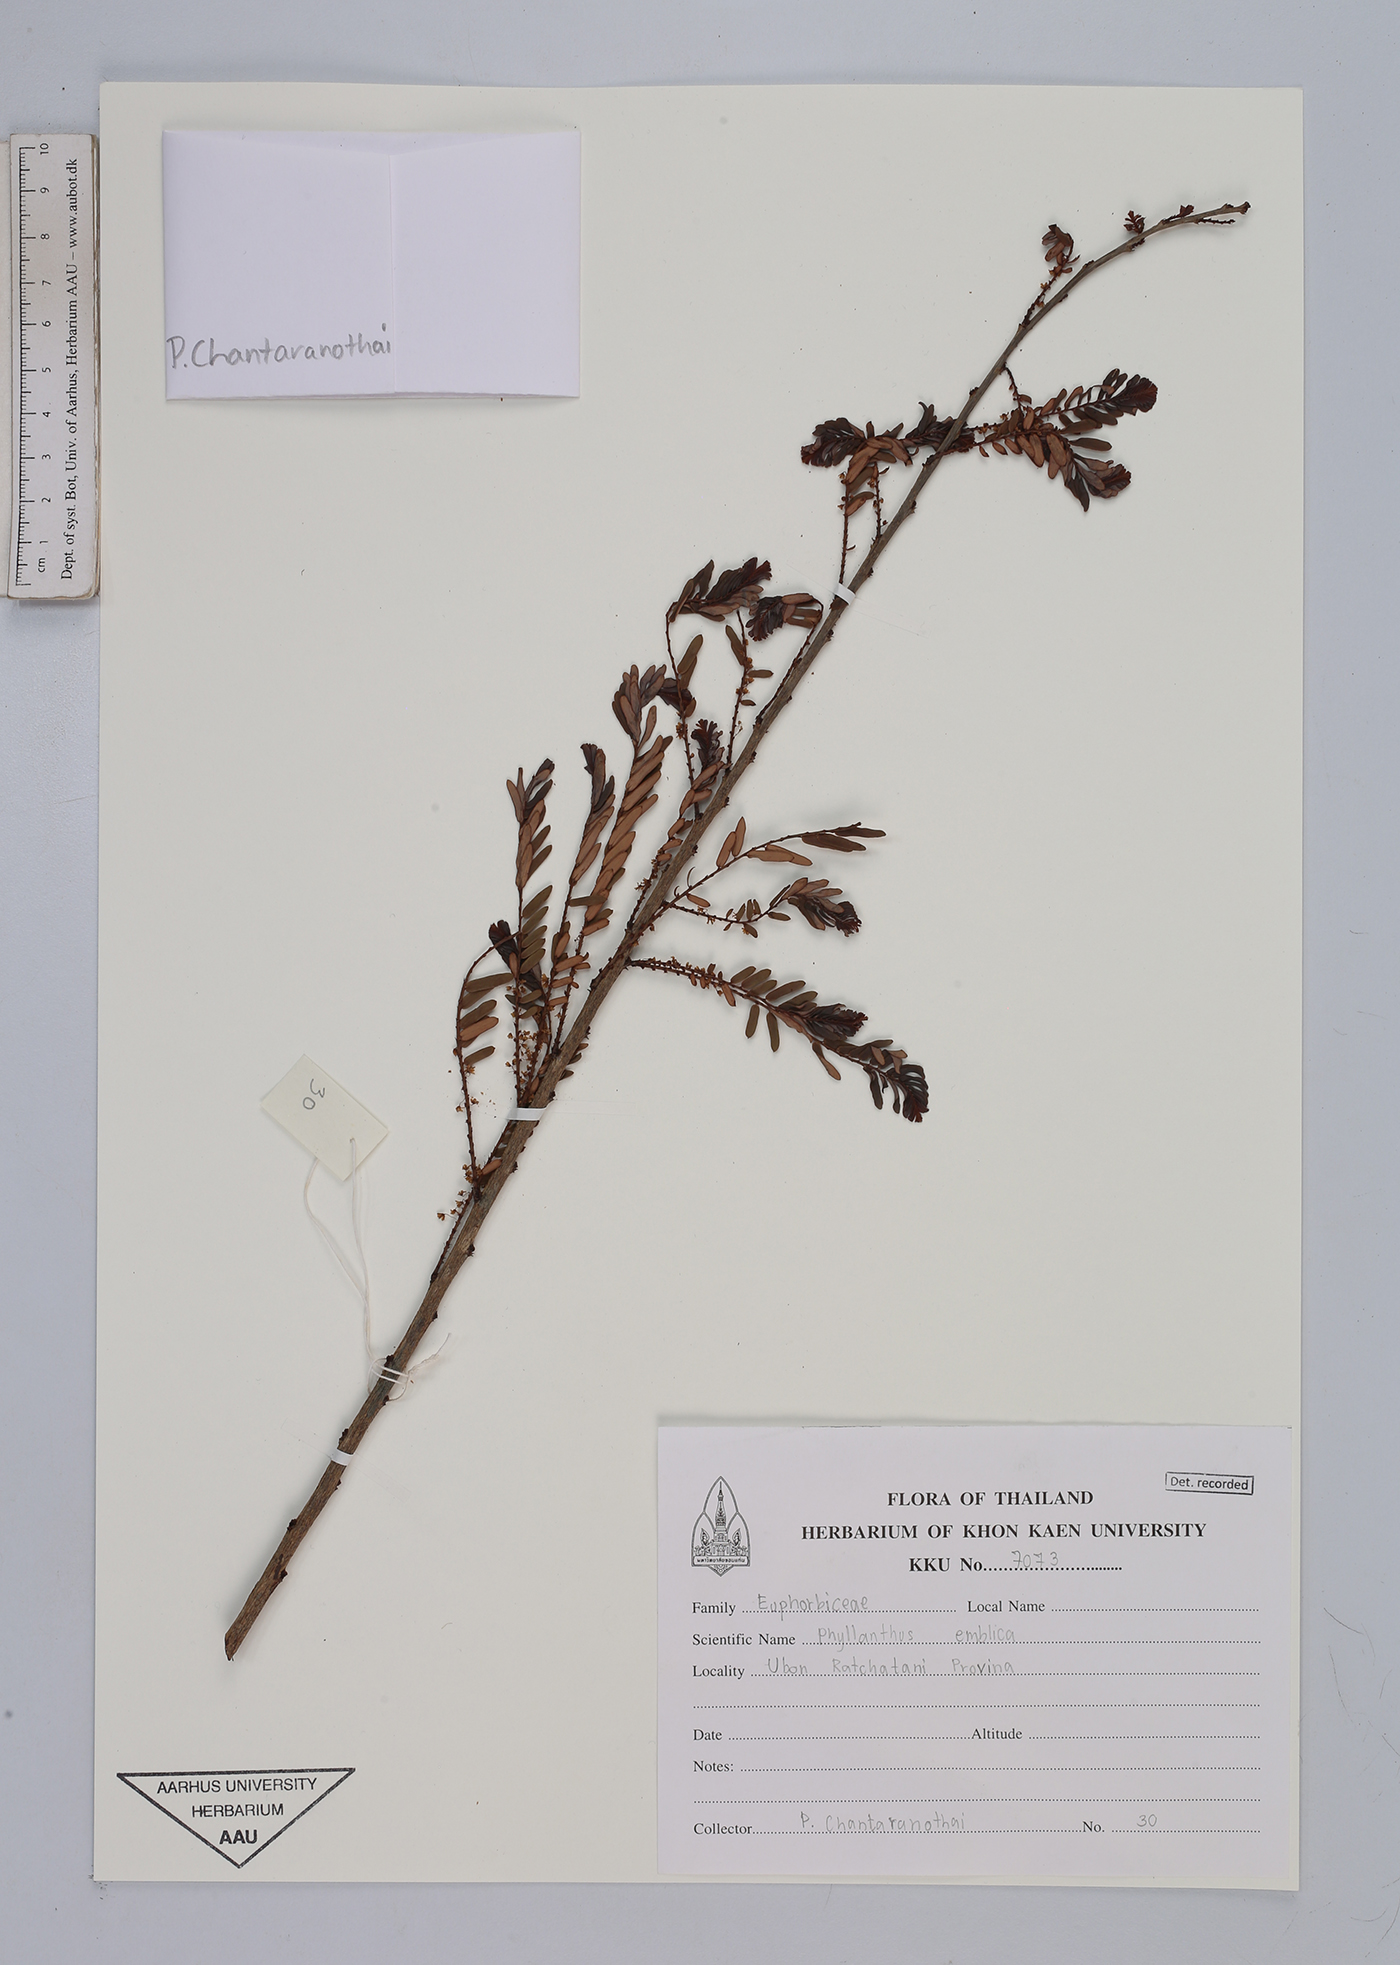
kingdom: Plantae
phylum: Tracheophyta
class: Magnoliopsida
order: Malpighiales
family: Phyllanthaceae
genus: Phyllanthus
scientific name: Phyllanthus emblica
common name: Indian gooseberry
